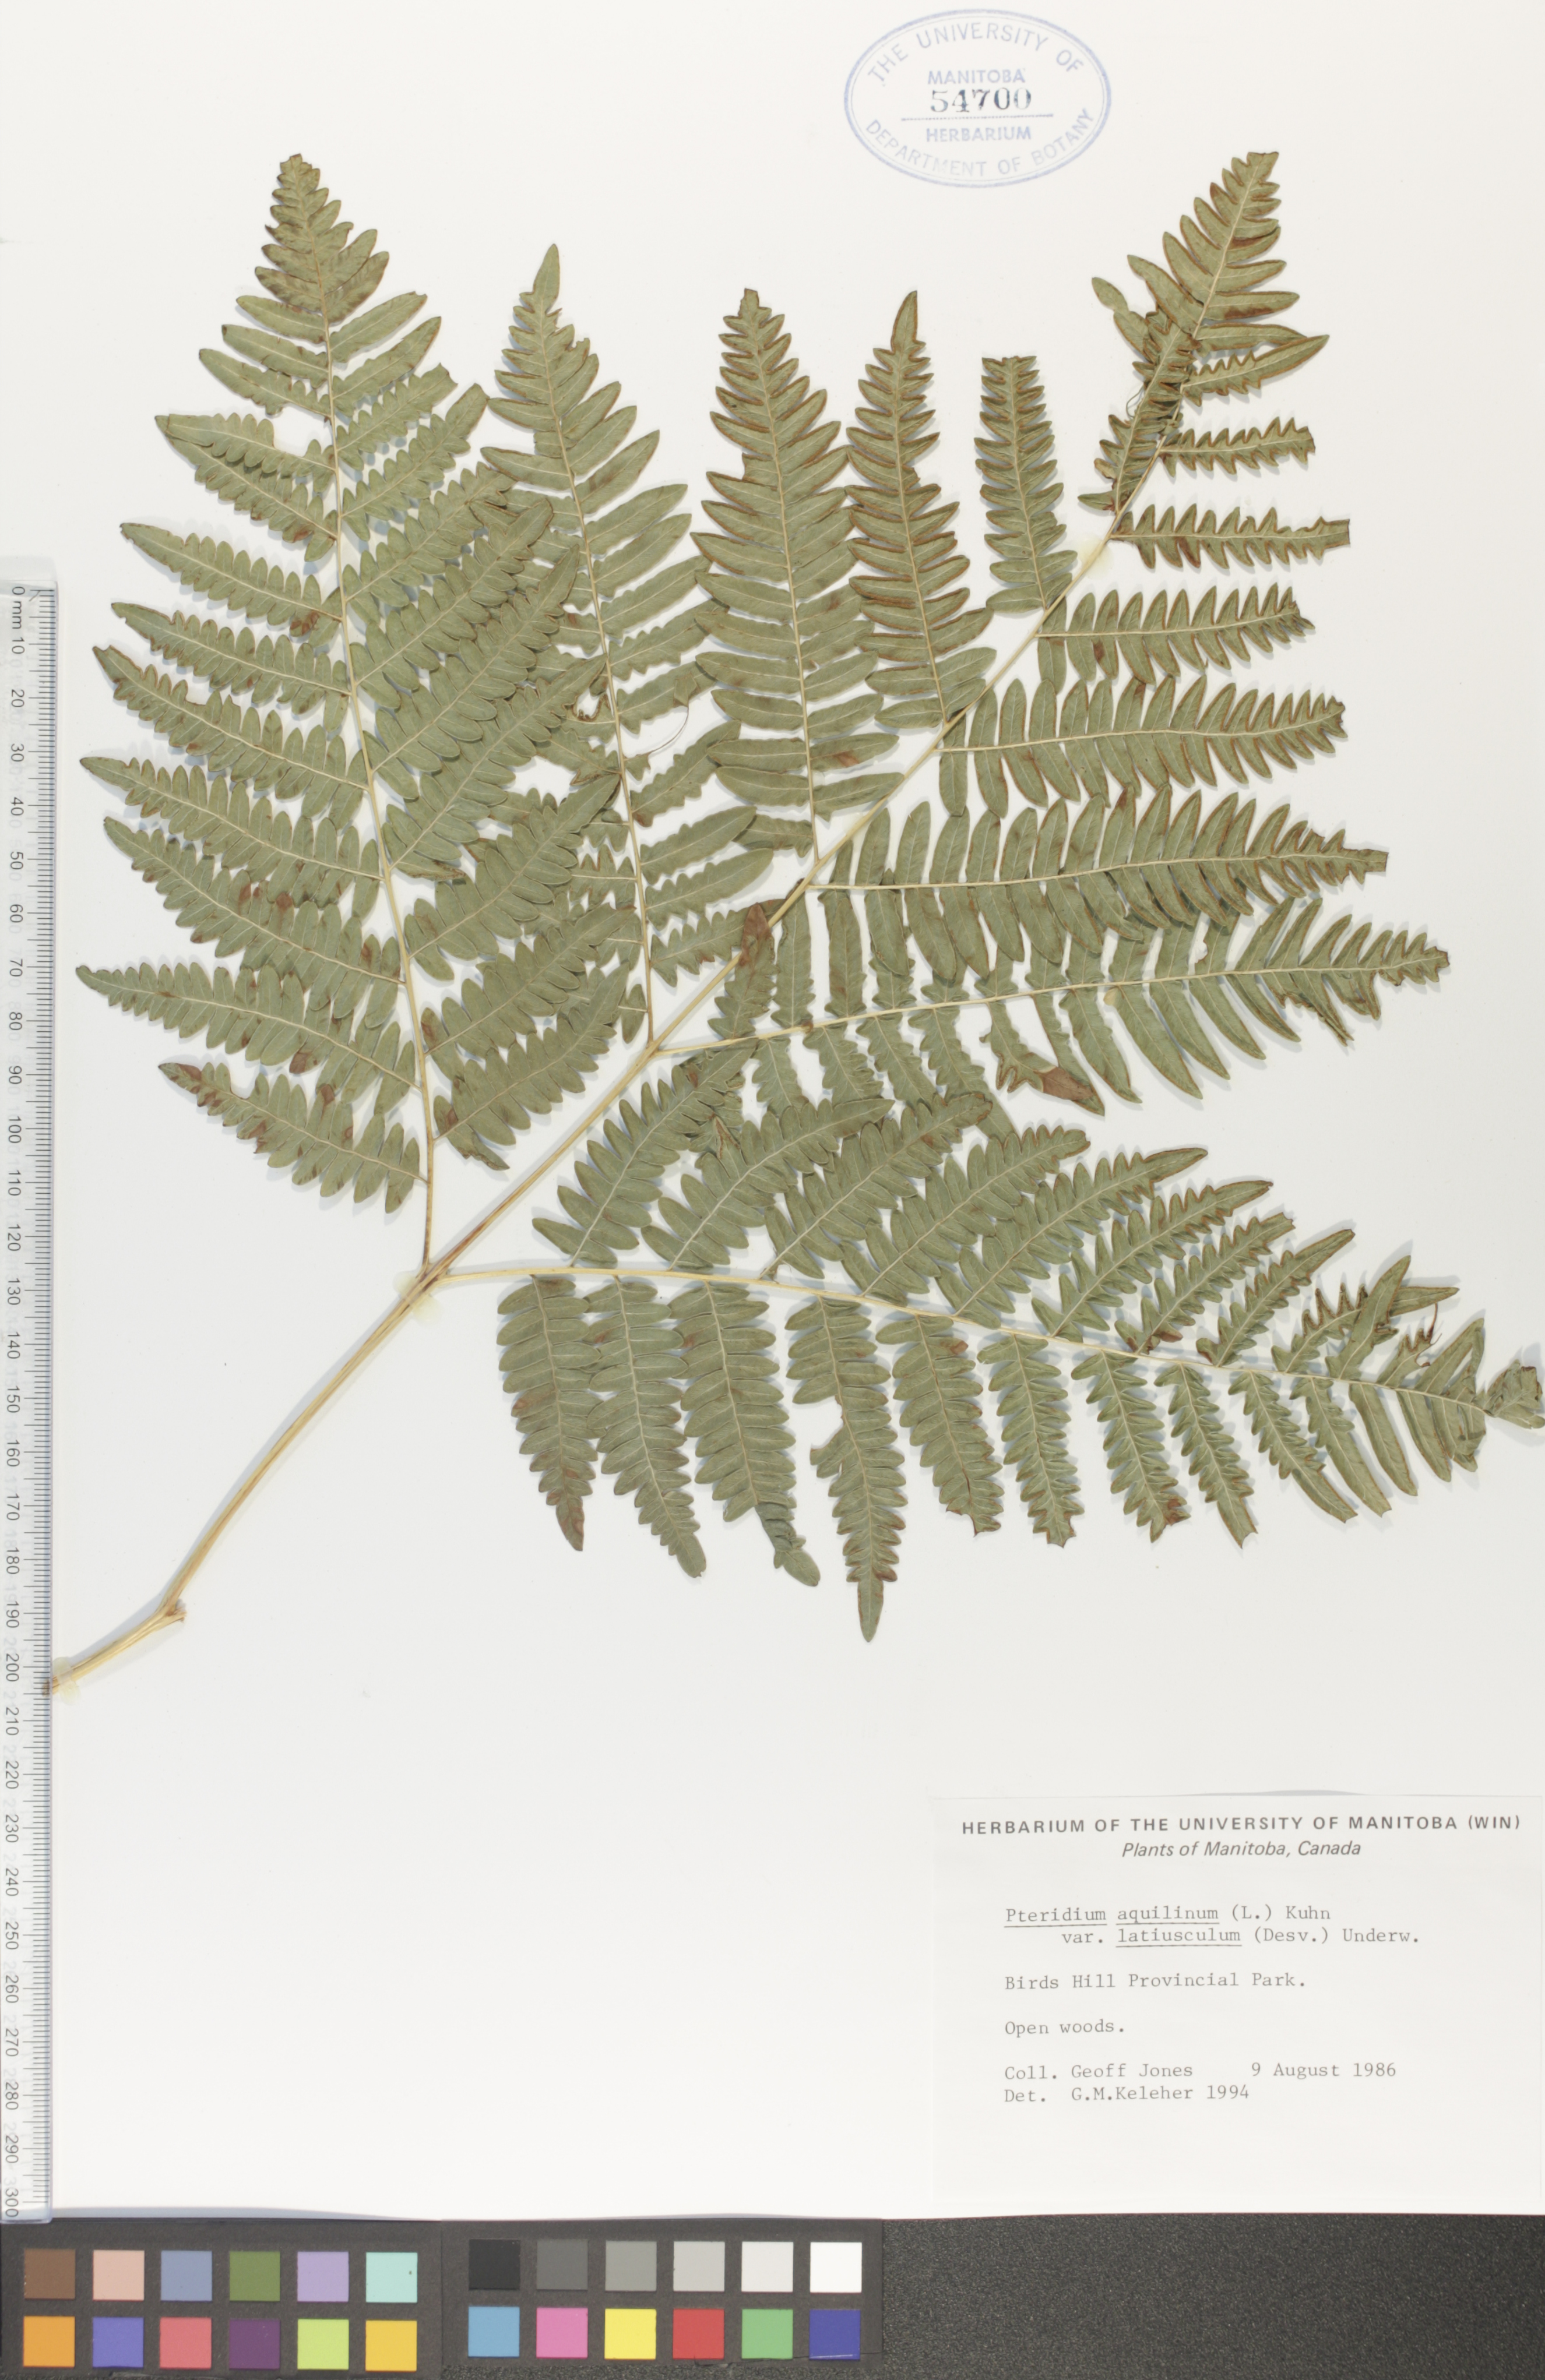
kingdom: Plantae
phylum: Tracheophyta
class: Polypodiopsida
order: Polypodiales
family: Dennstaedtiaceae
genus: Pteridium
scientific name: Pteridium aquilinum
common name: Bracken
